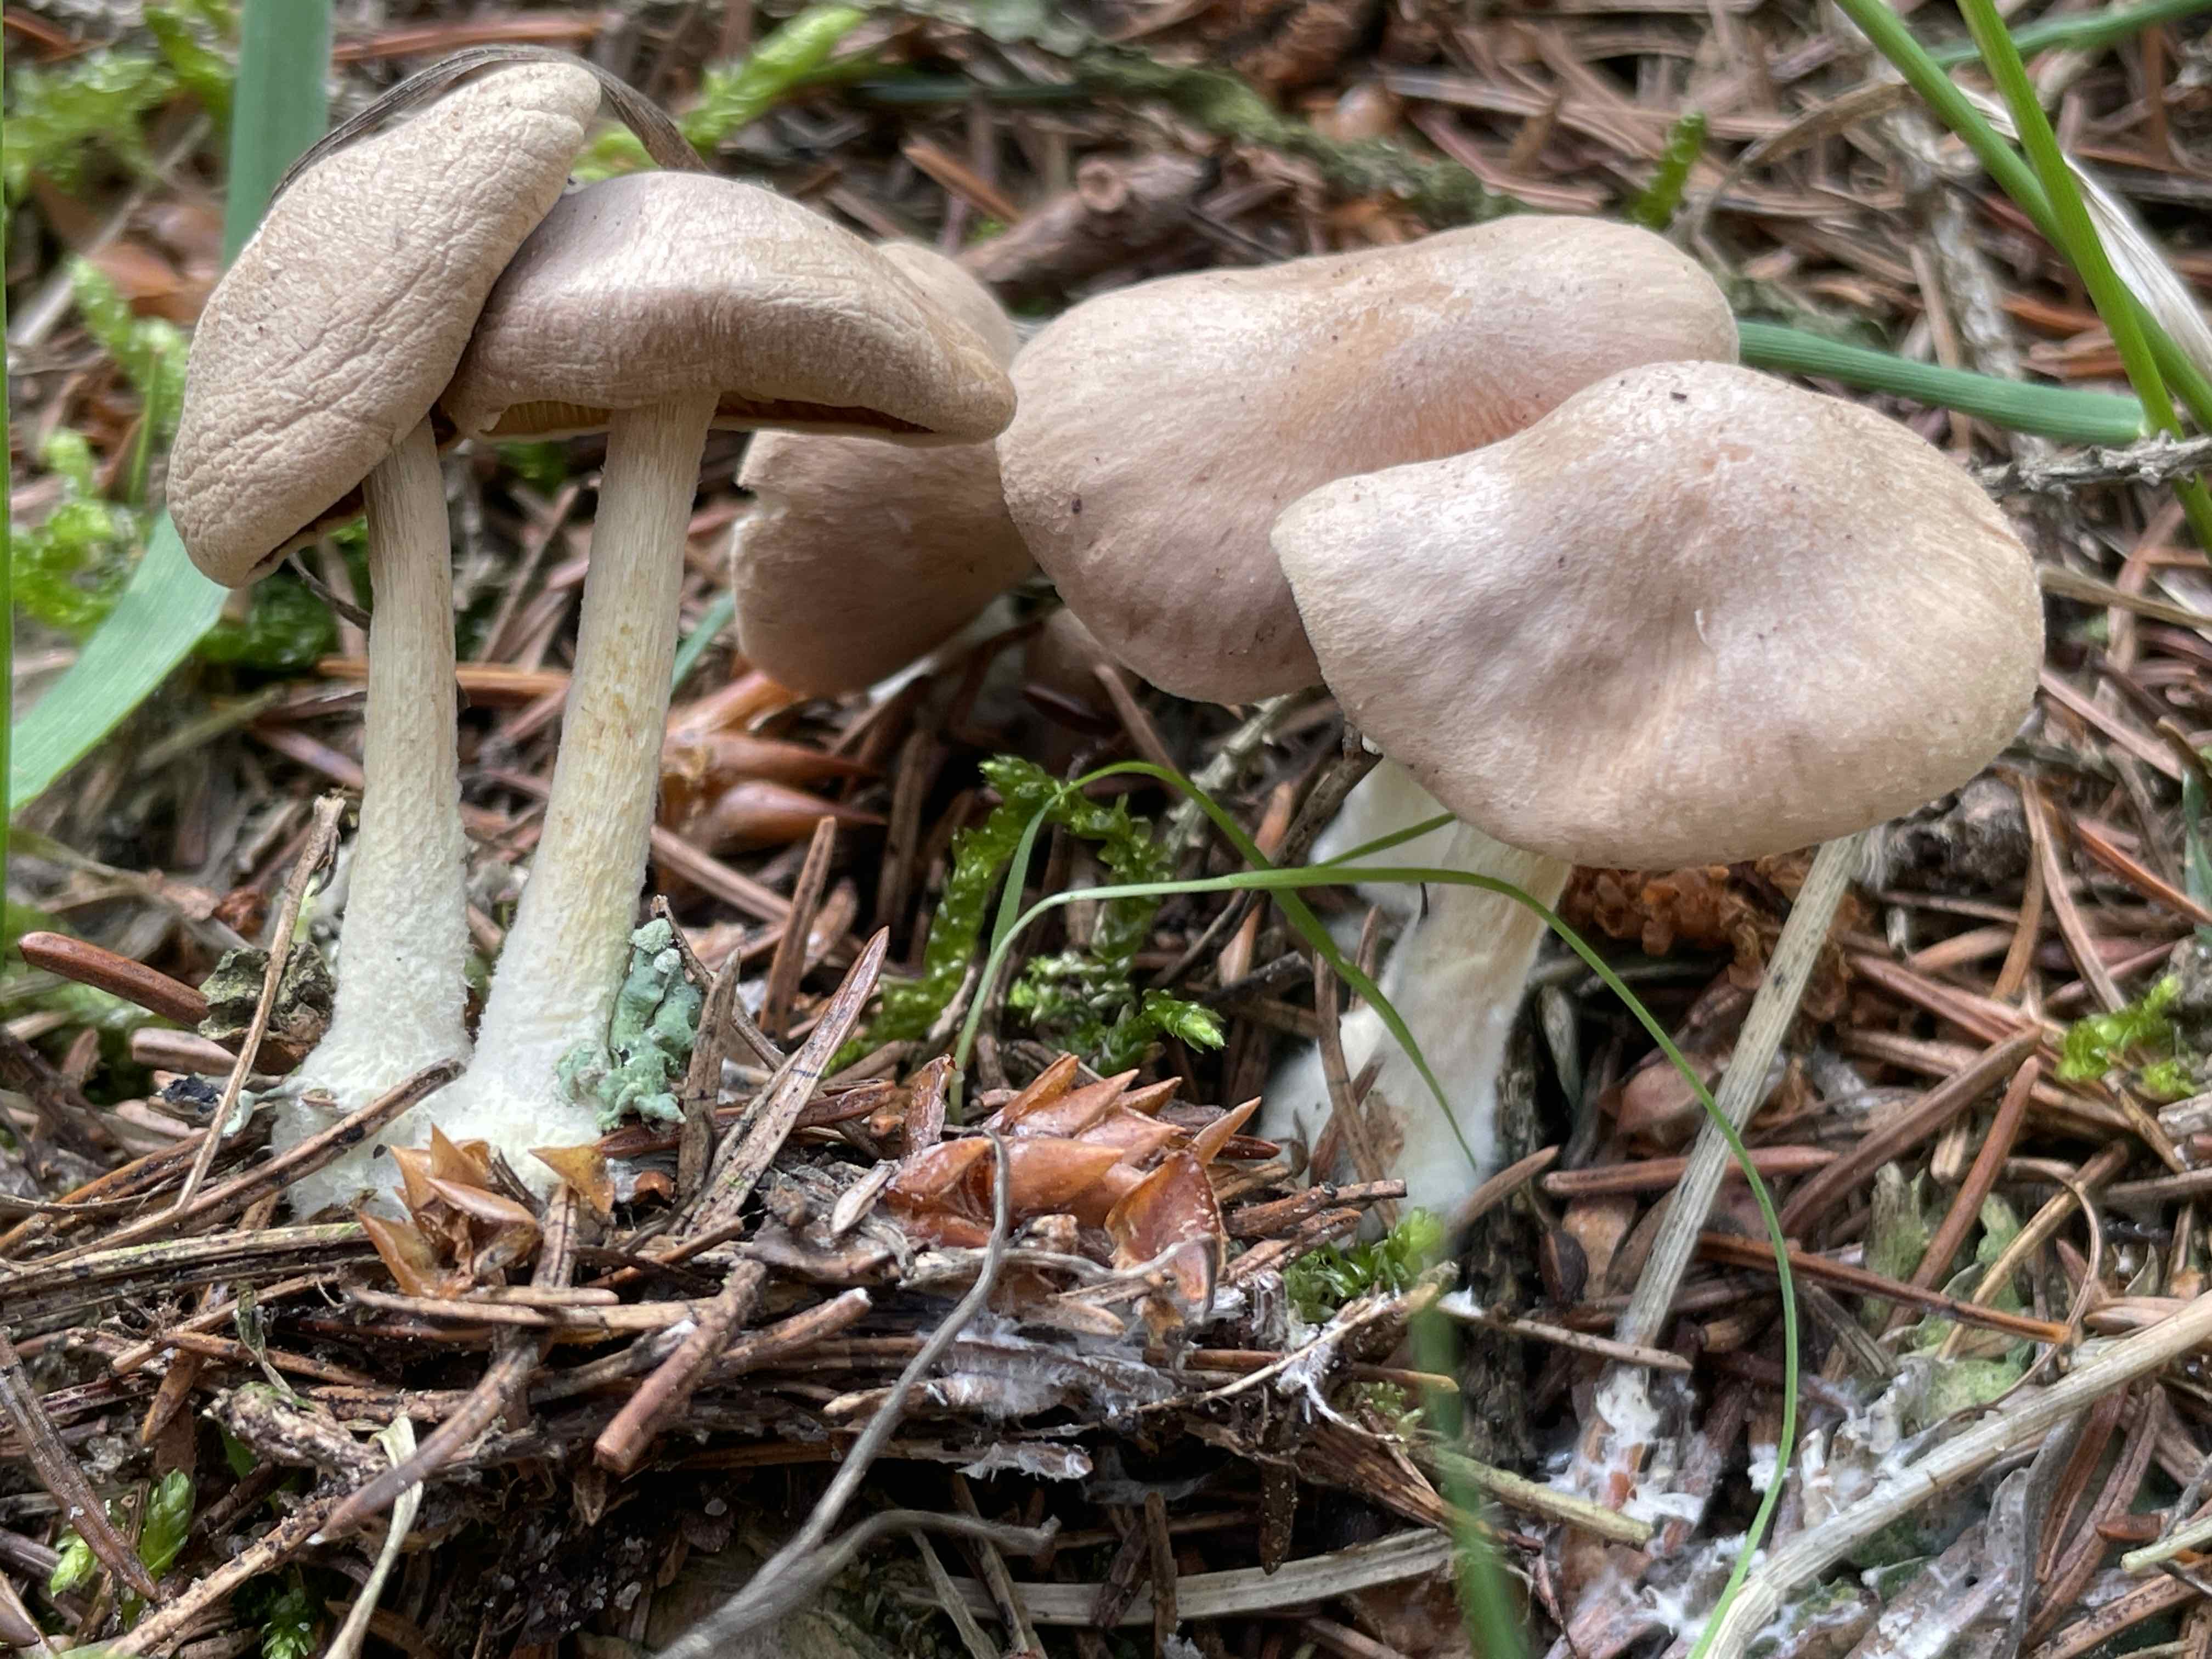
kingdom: Fungi
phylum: Basidiomycota
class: Agaricomycetes
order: Agaricales
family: Omphalotaceae
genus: Collybiopsis
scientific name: Collybiopsis peronata
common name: bestøvlet fladhat
